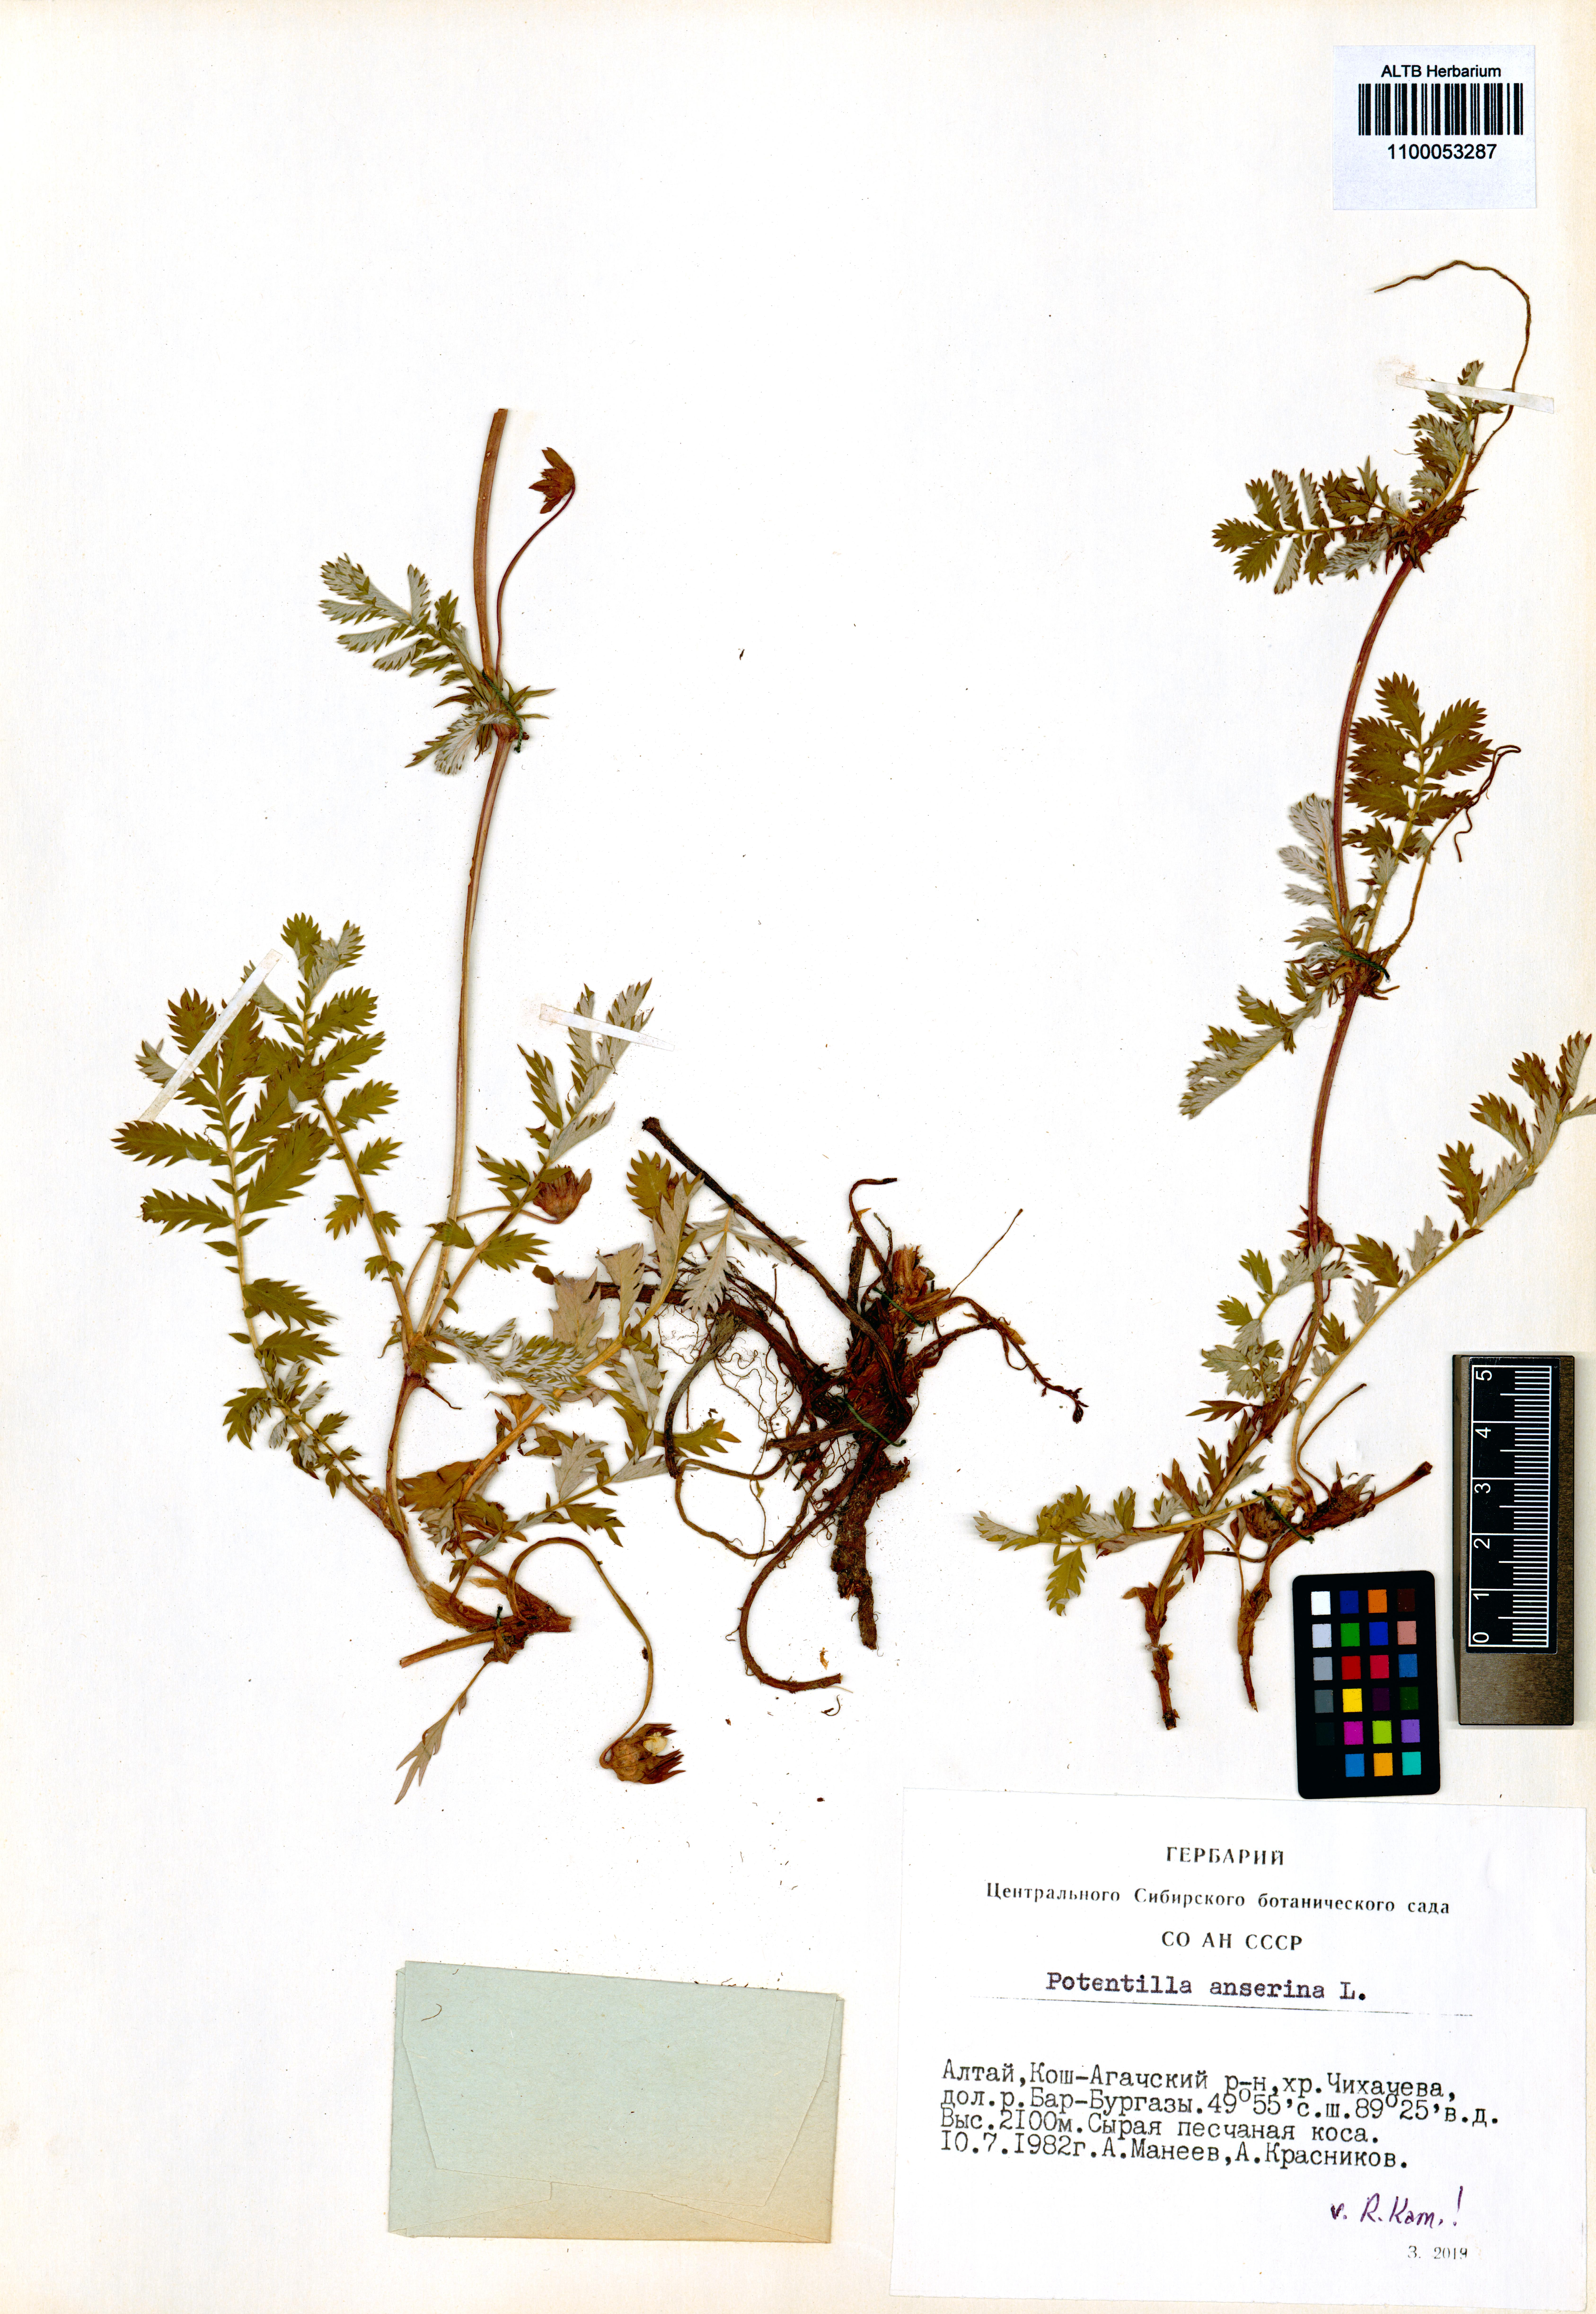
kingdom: Plantae
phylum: Tracheophyta
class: Magnoliopsida
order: Rosales
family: Rosaceae
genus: Argentina
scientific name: Argentina anserina
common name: Common silverweed
